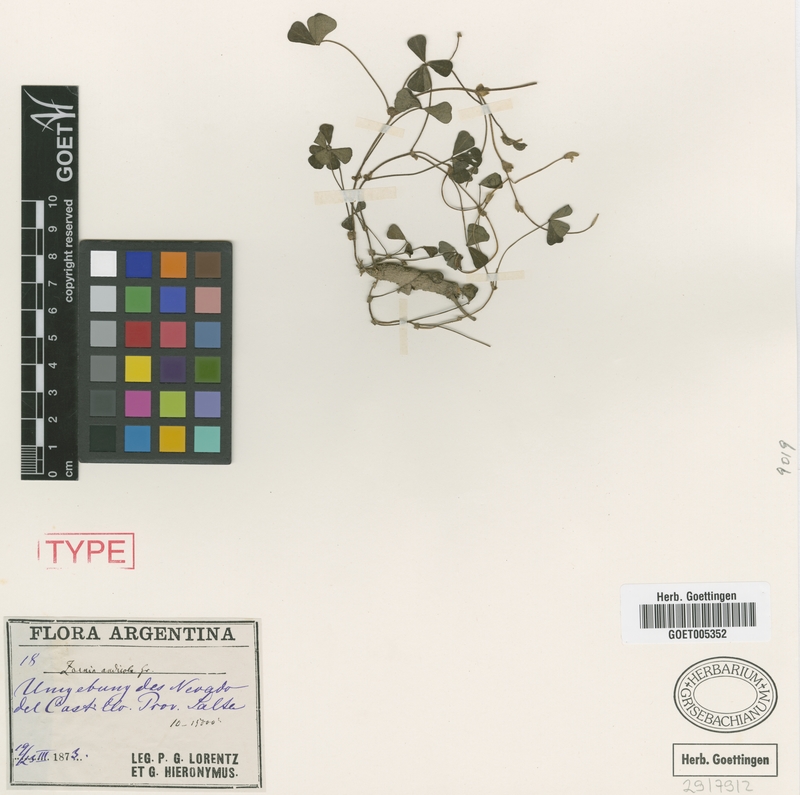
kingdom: Plantae
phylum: Tracheophyta
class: Magnoliopsida
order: Fabales
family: Fabaceae
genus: Amicia
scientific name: Amicia andicola
